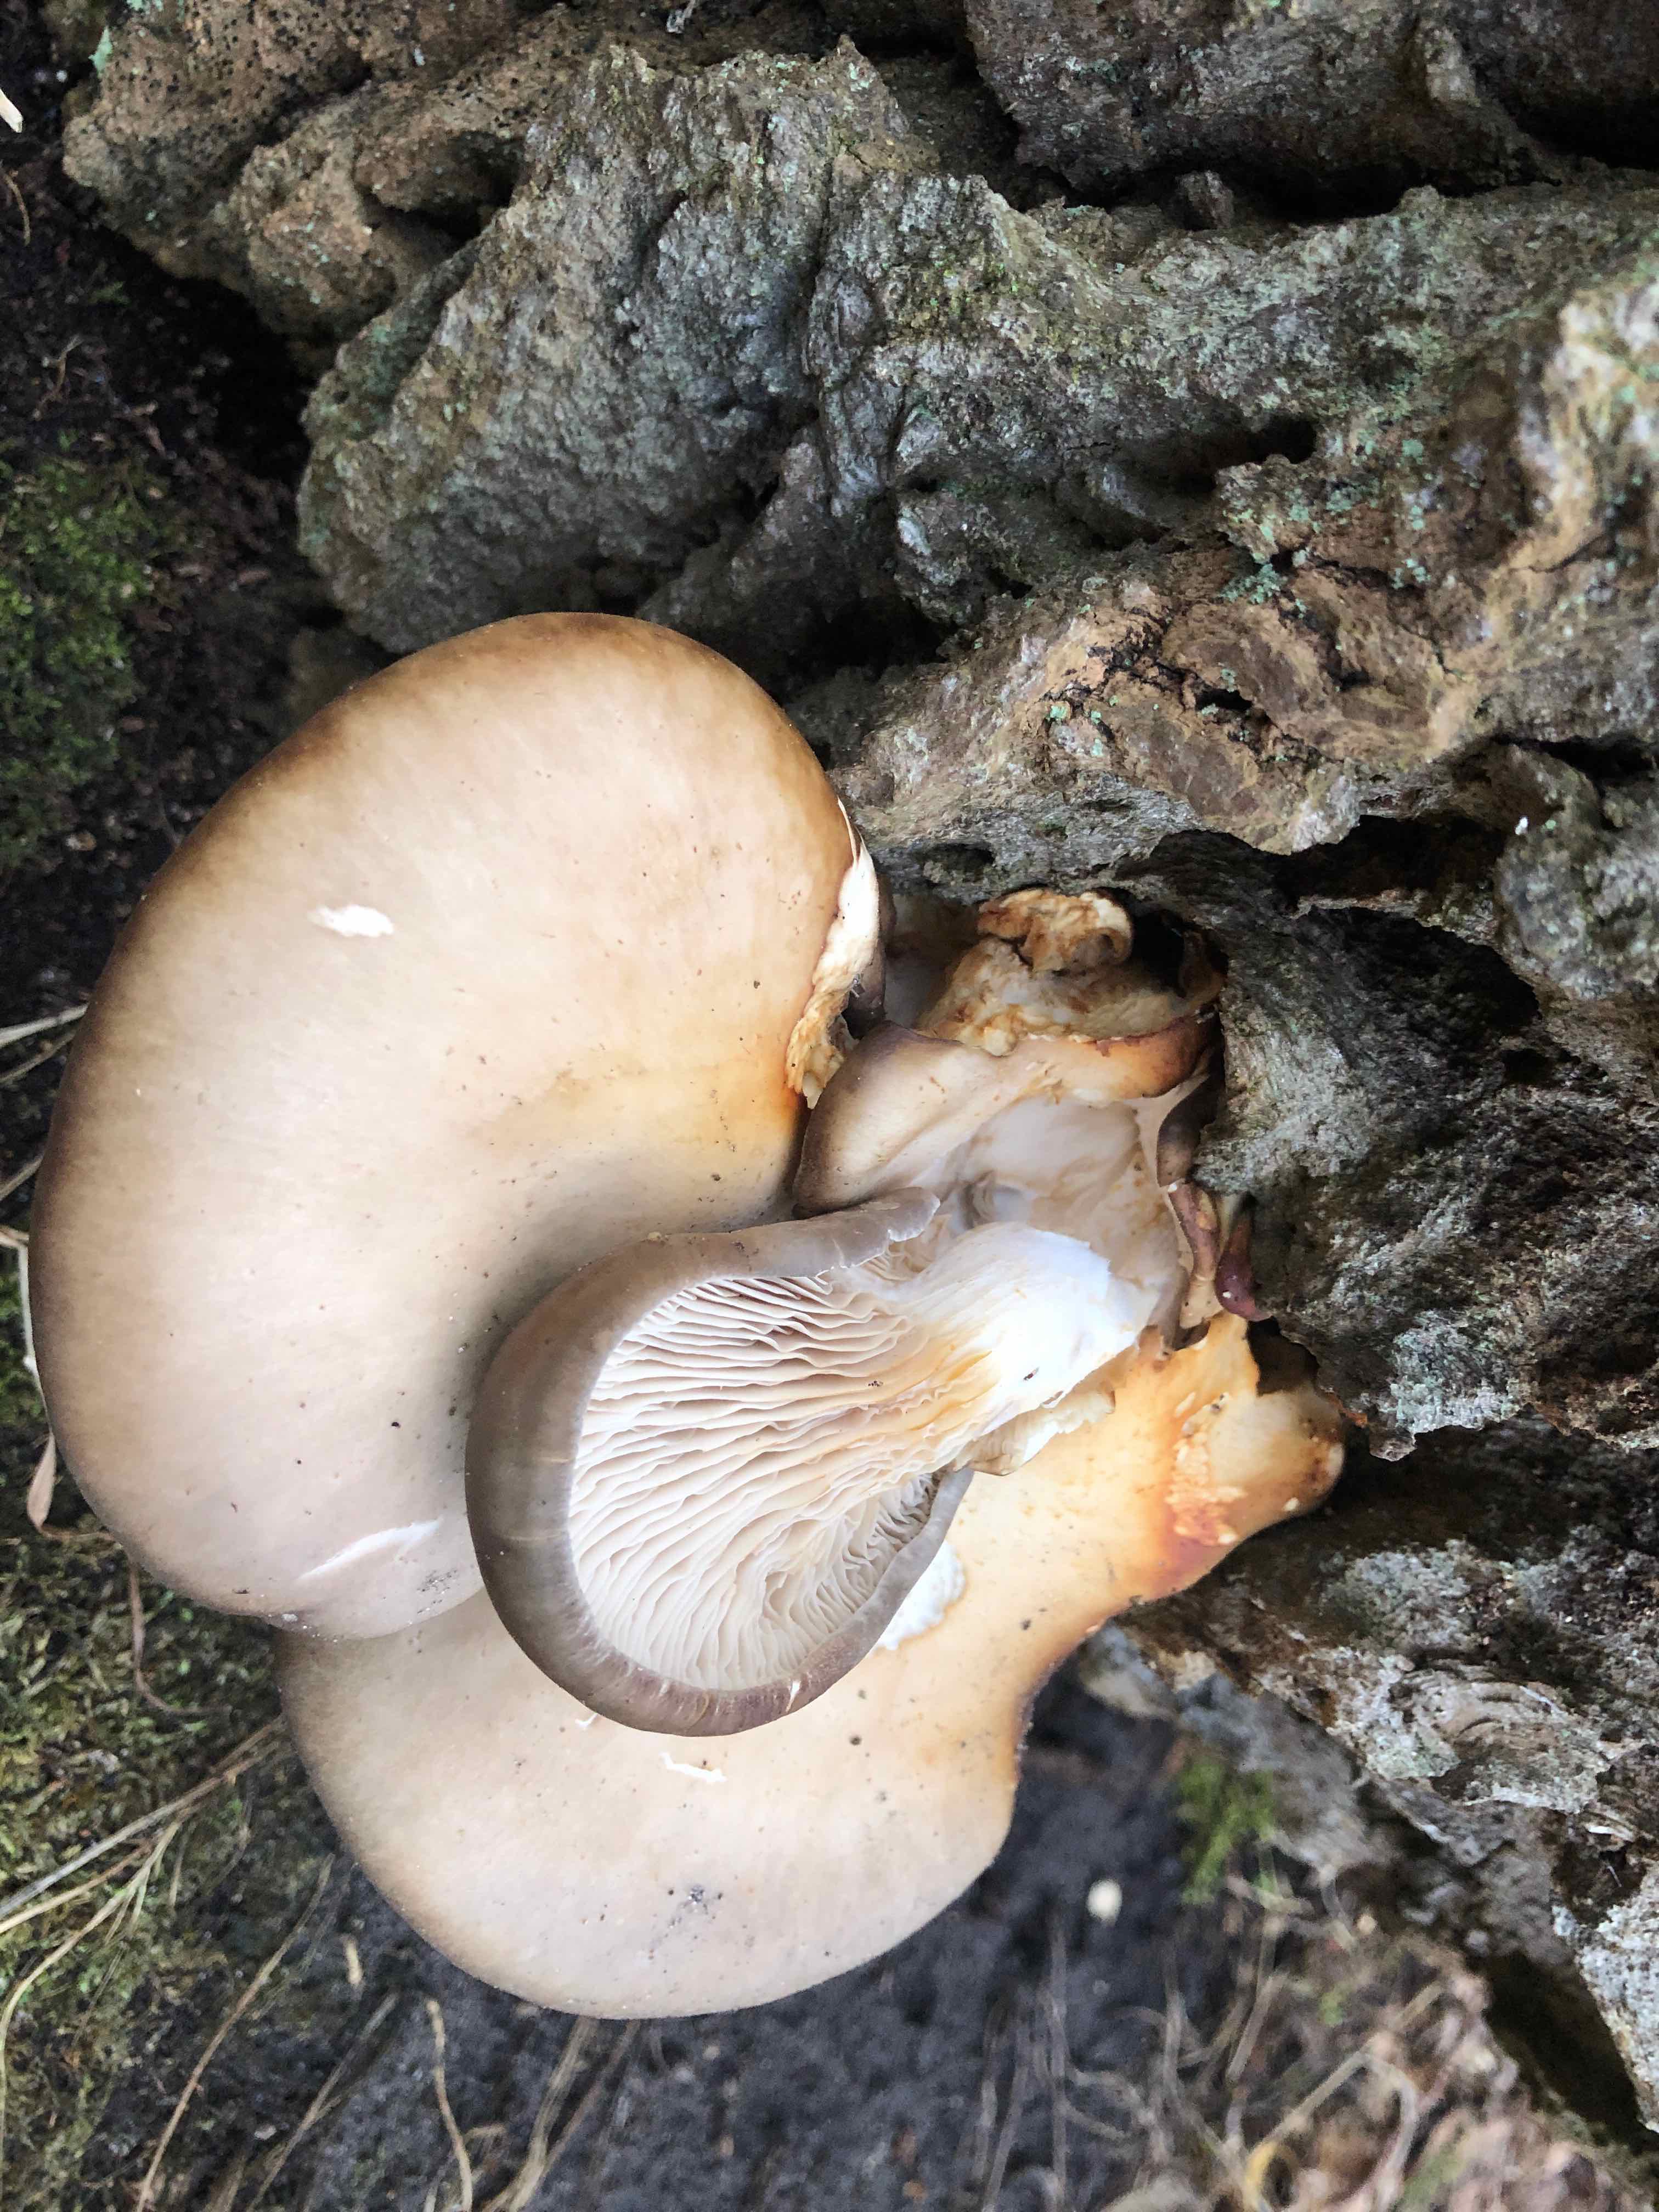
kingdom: Fungi
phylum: Basidiomycota
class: Agaricomycetes
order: Agaricales
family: Pleurotaceae
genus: Pleurotus
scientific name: Pleurotus ostreatus
